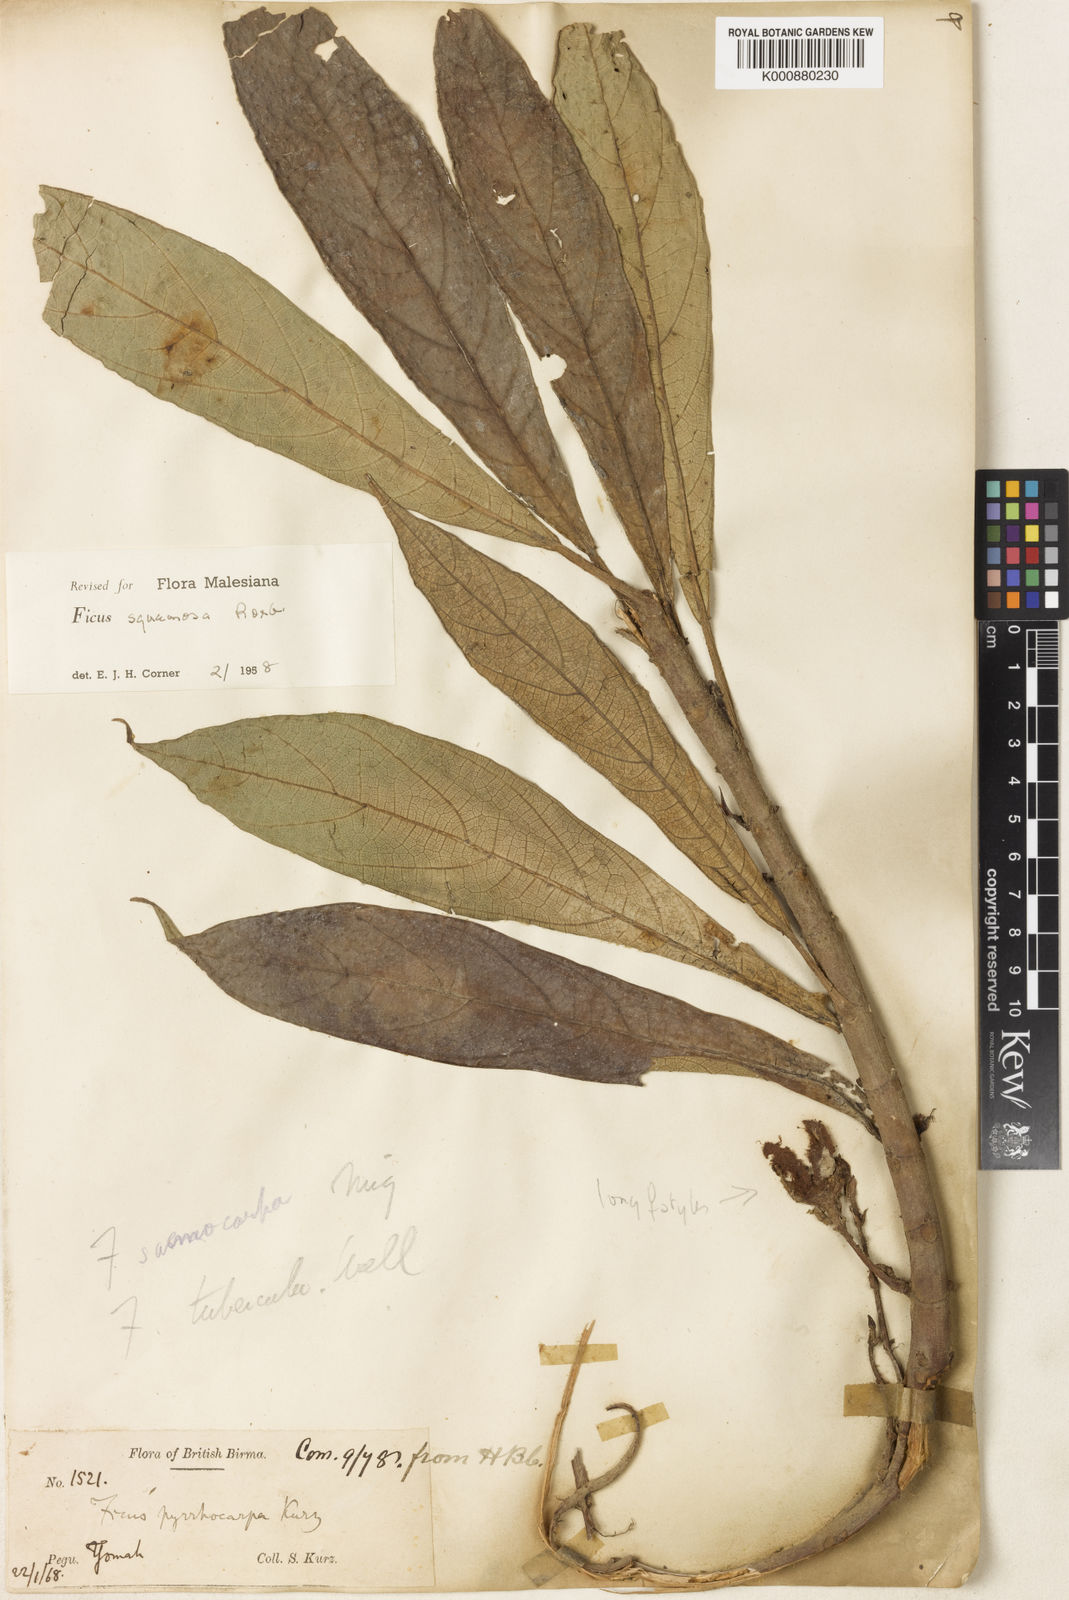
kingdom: Plantae
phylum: Tracheophyta
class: Magnoliopsida
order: Rosales
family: Moraceae
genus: Ficus
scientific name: Ficus squamosa
